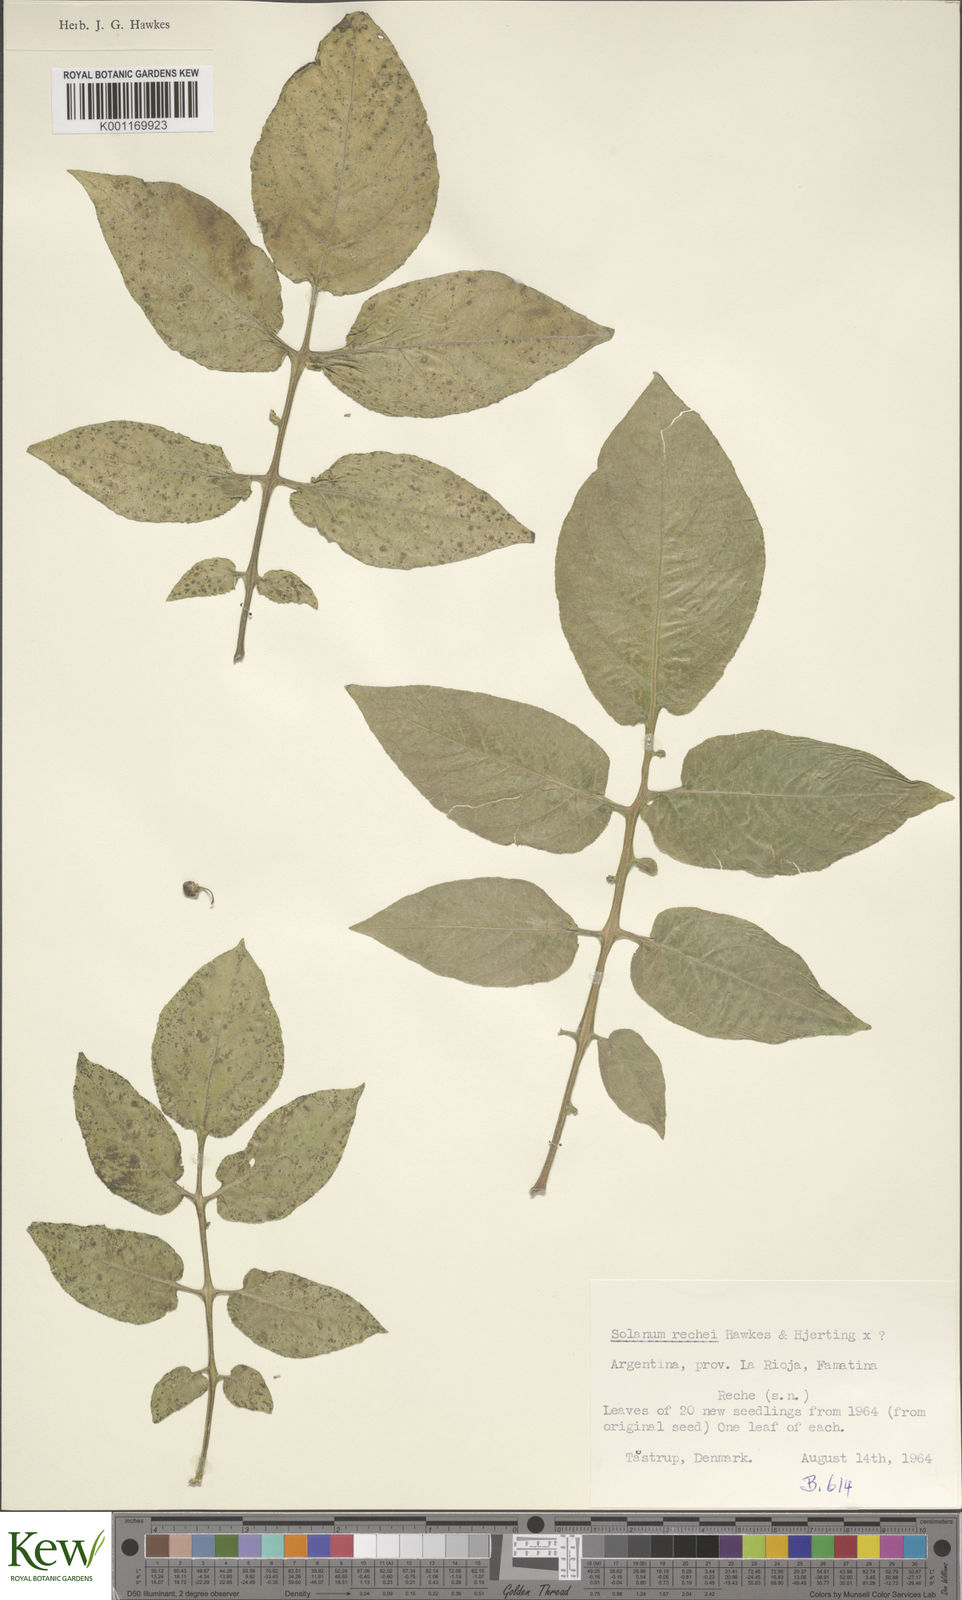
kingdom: Plantae
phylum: Tracheophyta
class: Magnoliopsida
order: Solanales
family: Solanaceae
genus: Solanum
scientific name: Solanum rechei
